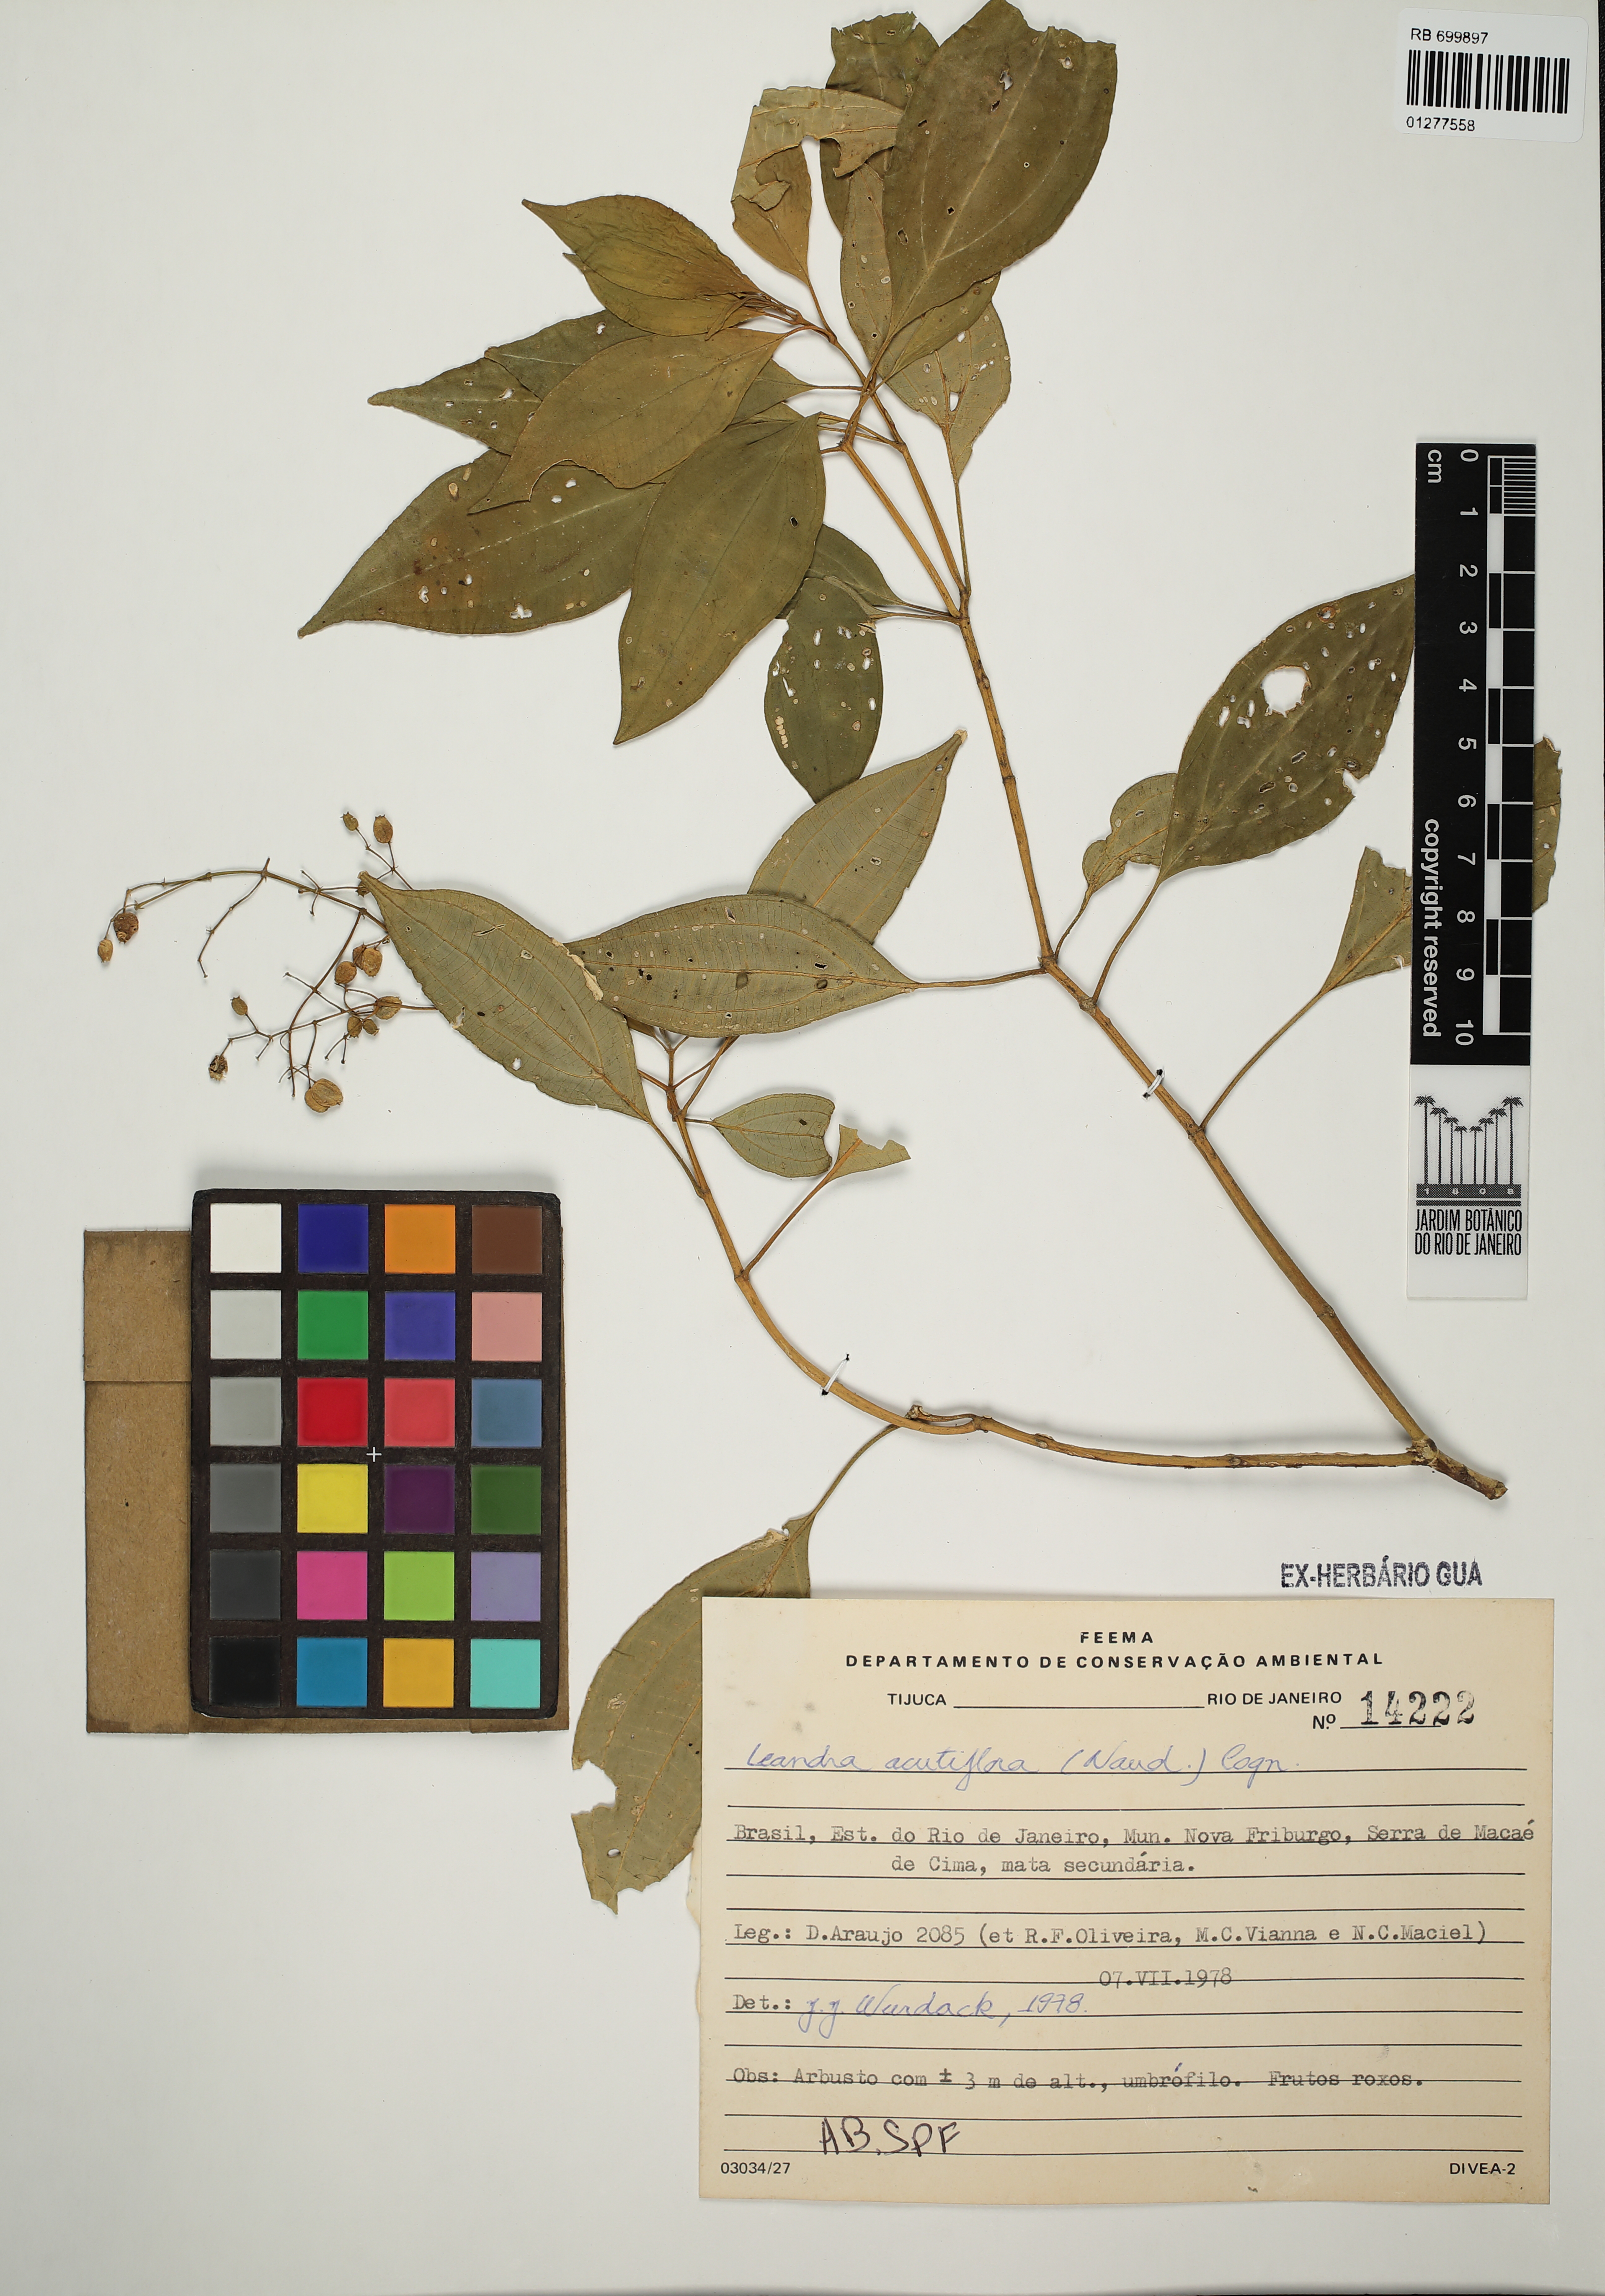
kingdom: Plantae
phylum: Tracheophyta
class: Magnoliopsida
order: Myrtales
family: Melastomataceae
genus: Miconia
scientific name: Miconia acutiflora
